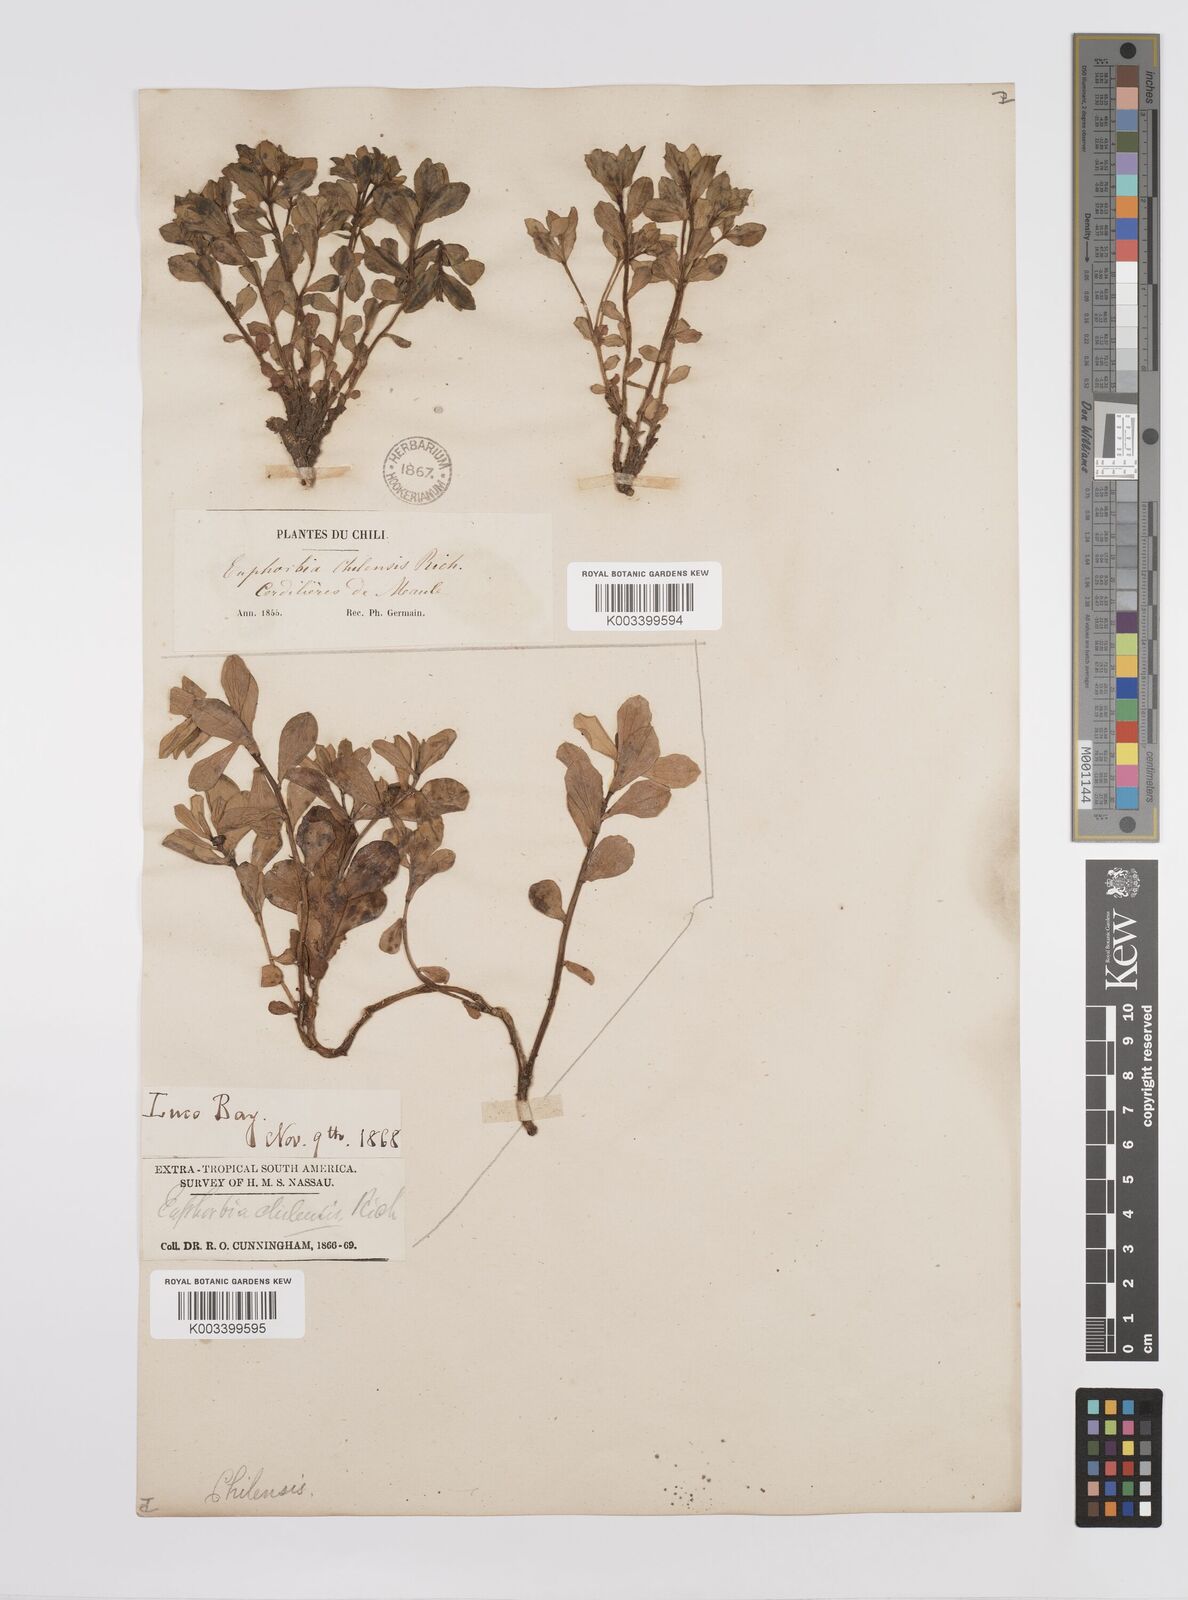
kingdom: Plantae
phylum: Tracheophyta
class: Magnoliopsida
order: Malpighiales
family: Euphorbiaceae
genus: Euphorbia
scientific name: Euphorbia portulacoides
